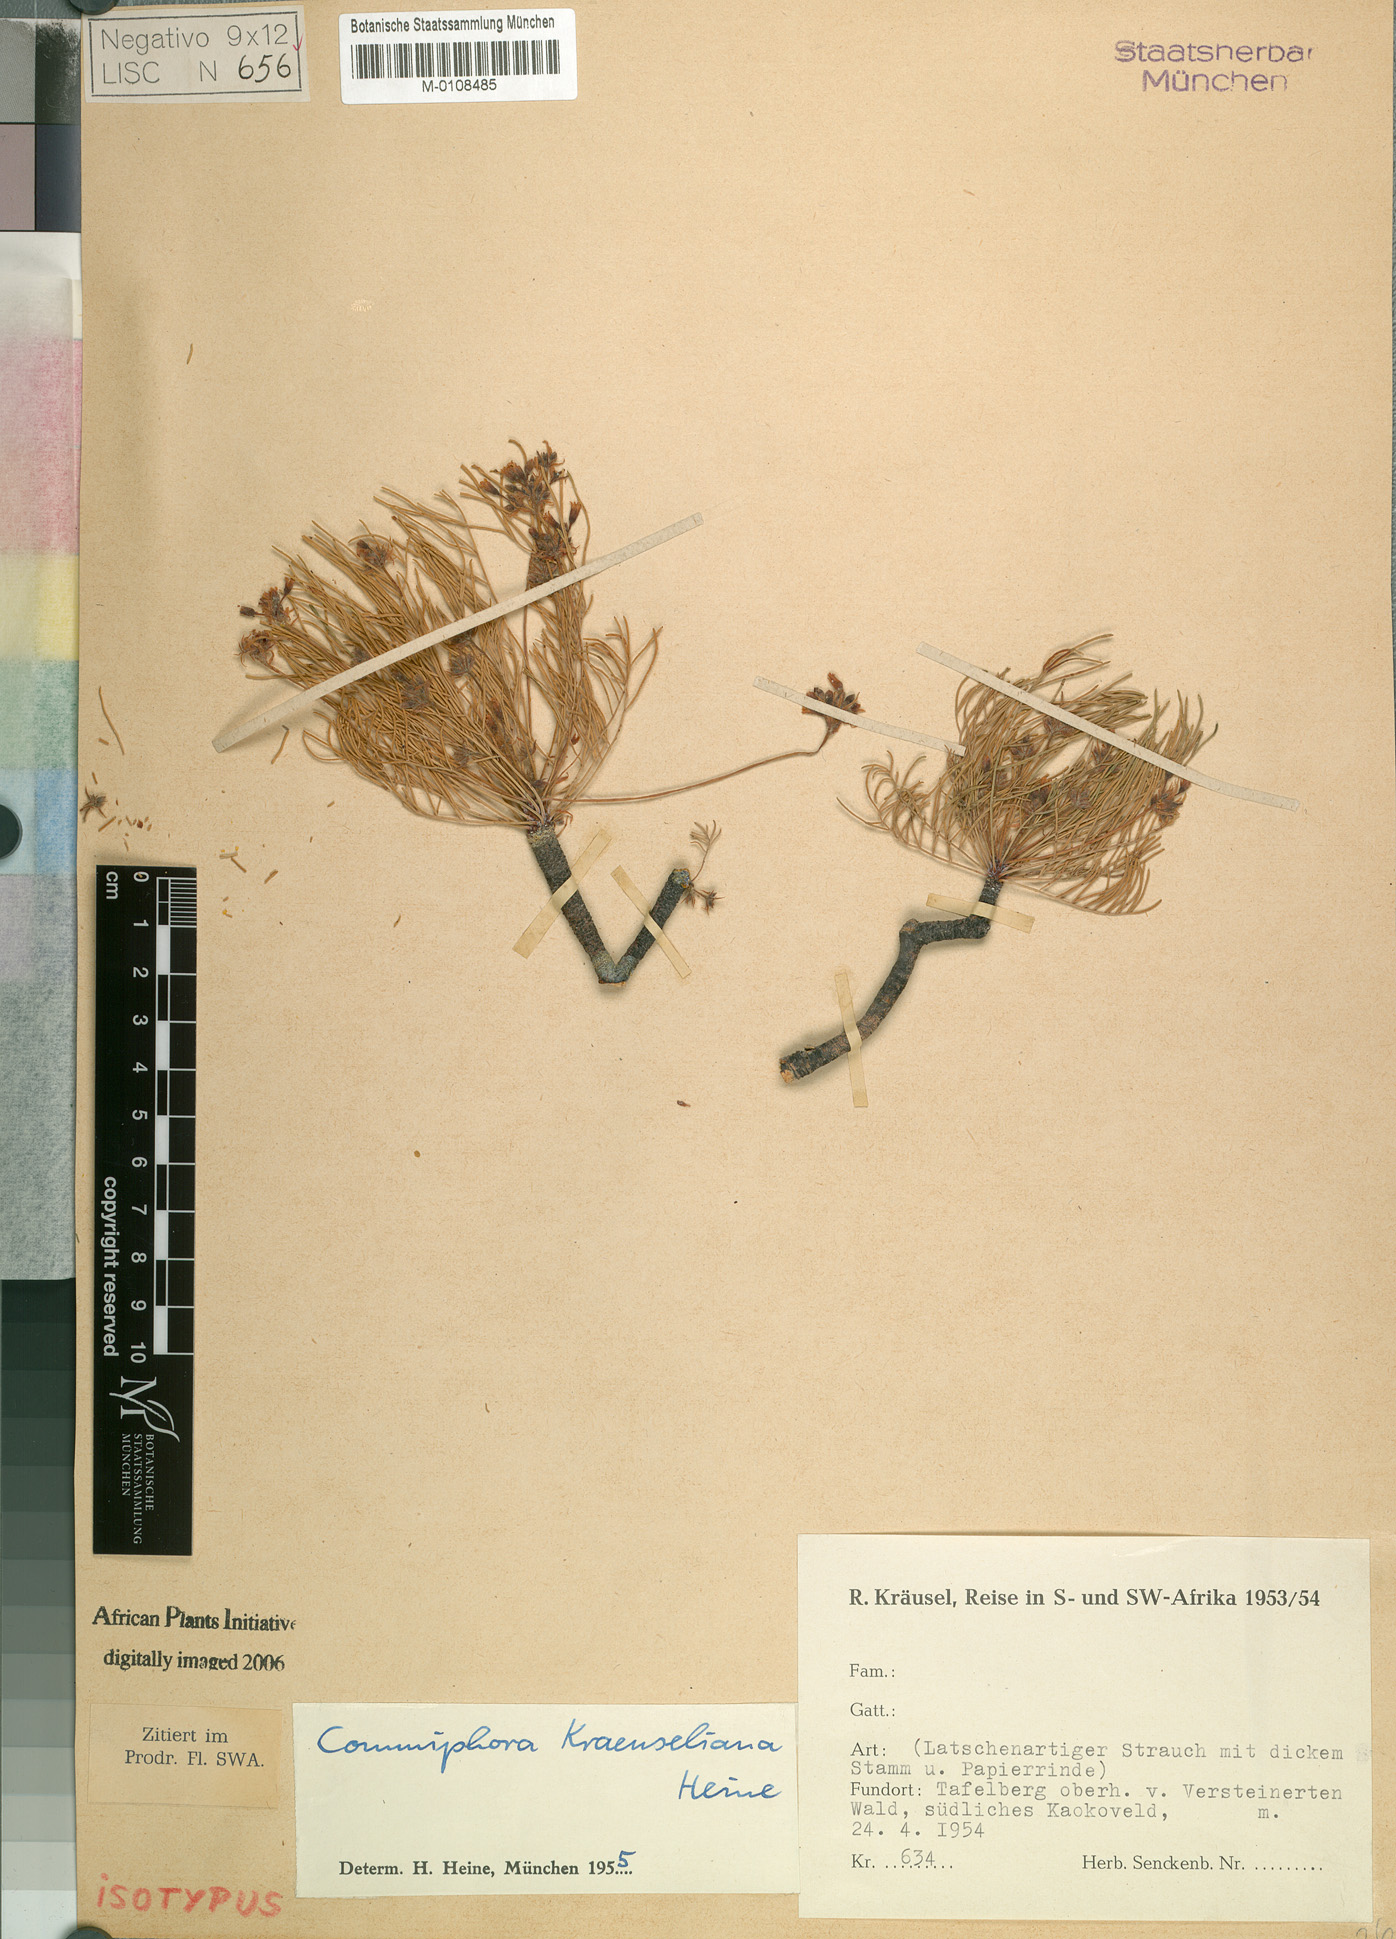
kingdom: Plantae
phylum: Tracheophyta
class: Magnoliopsida
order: Sapindales
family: Burseraceae
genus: Commiphora
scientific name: Commiphora kraeuseliana
